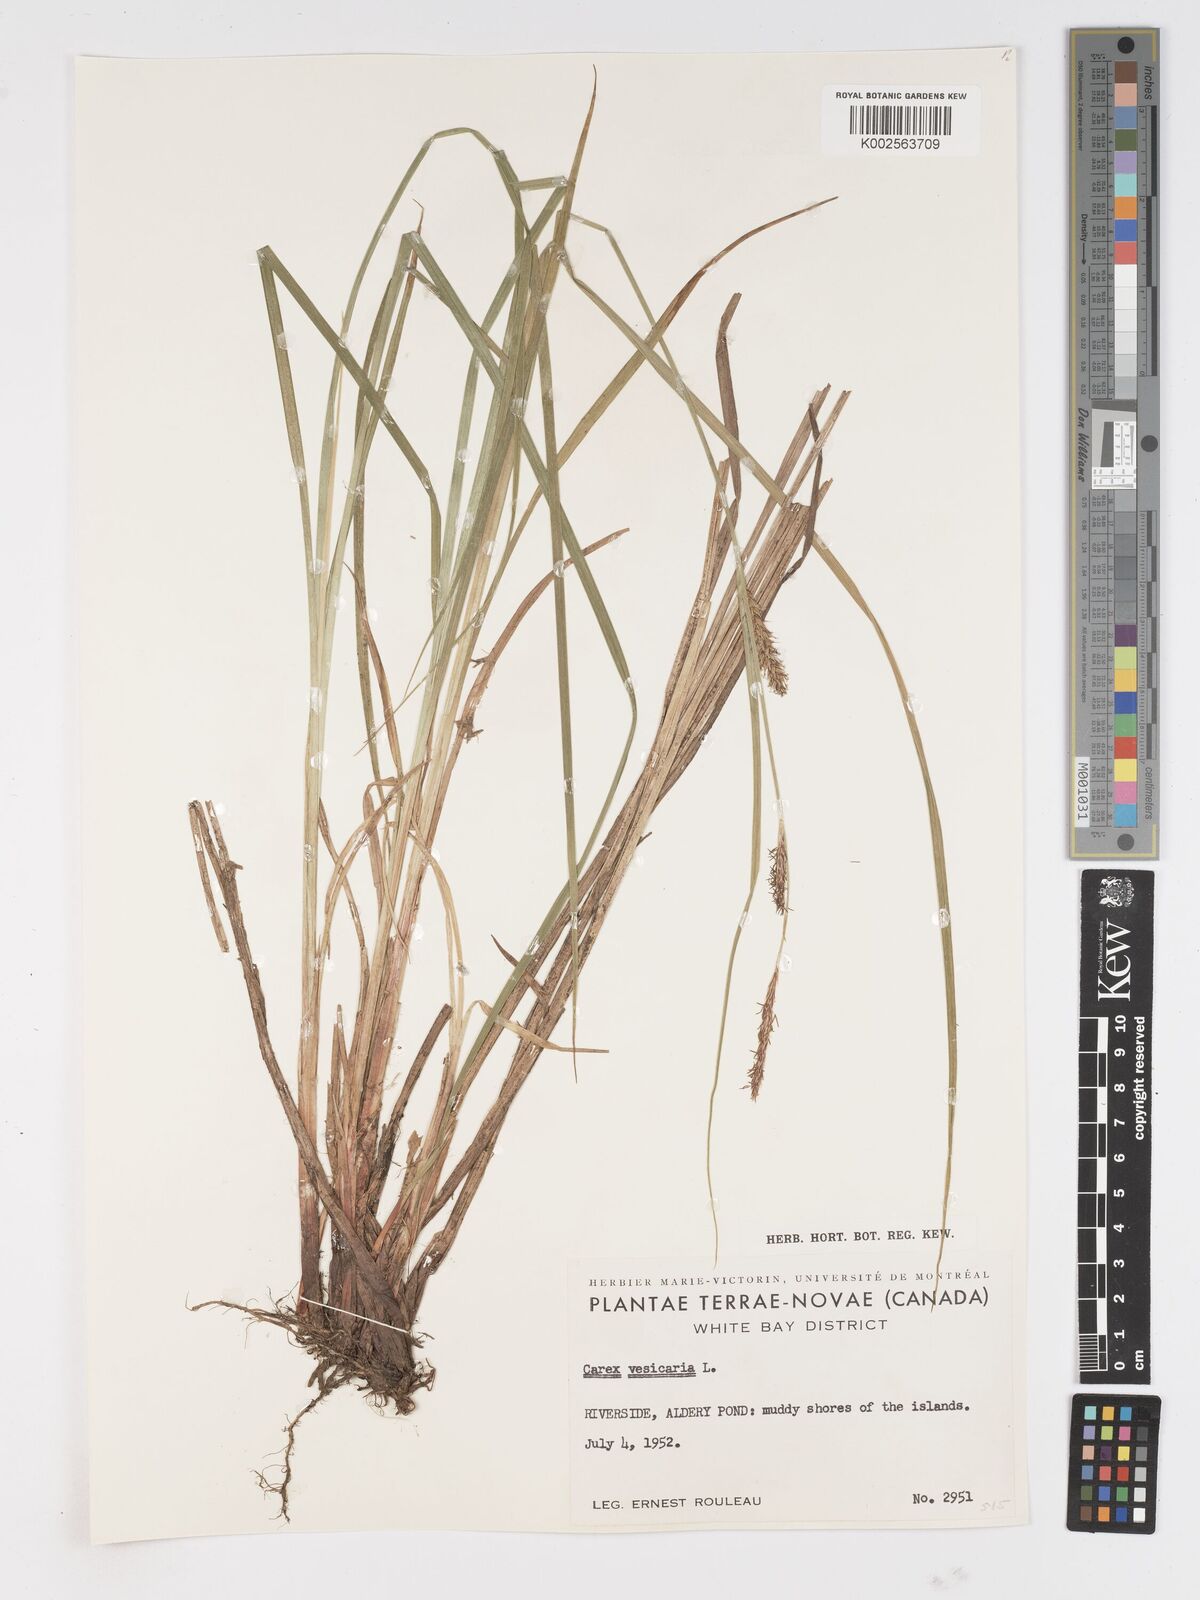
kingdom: Plantae
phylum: Tracheophyta
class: Liliopsida
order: Poales
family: Cyperaceae
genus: Carex
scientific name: Carex vesicaria
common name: Bladder-sedge
